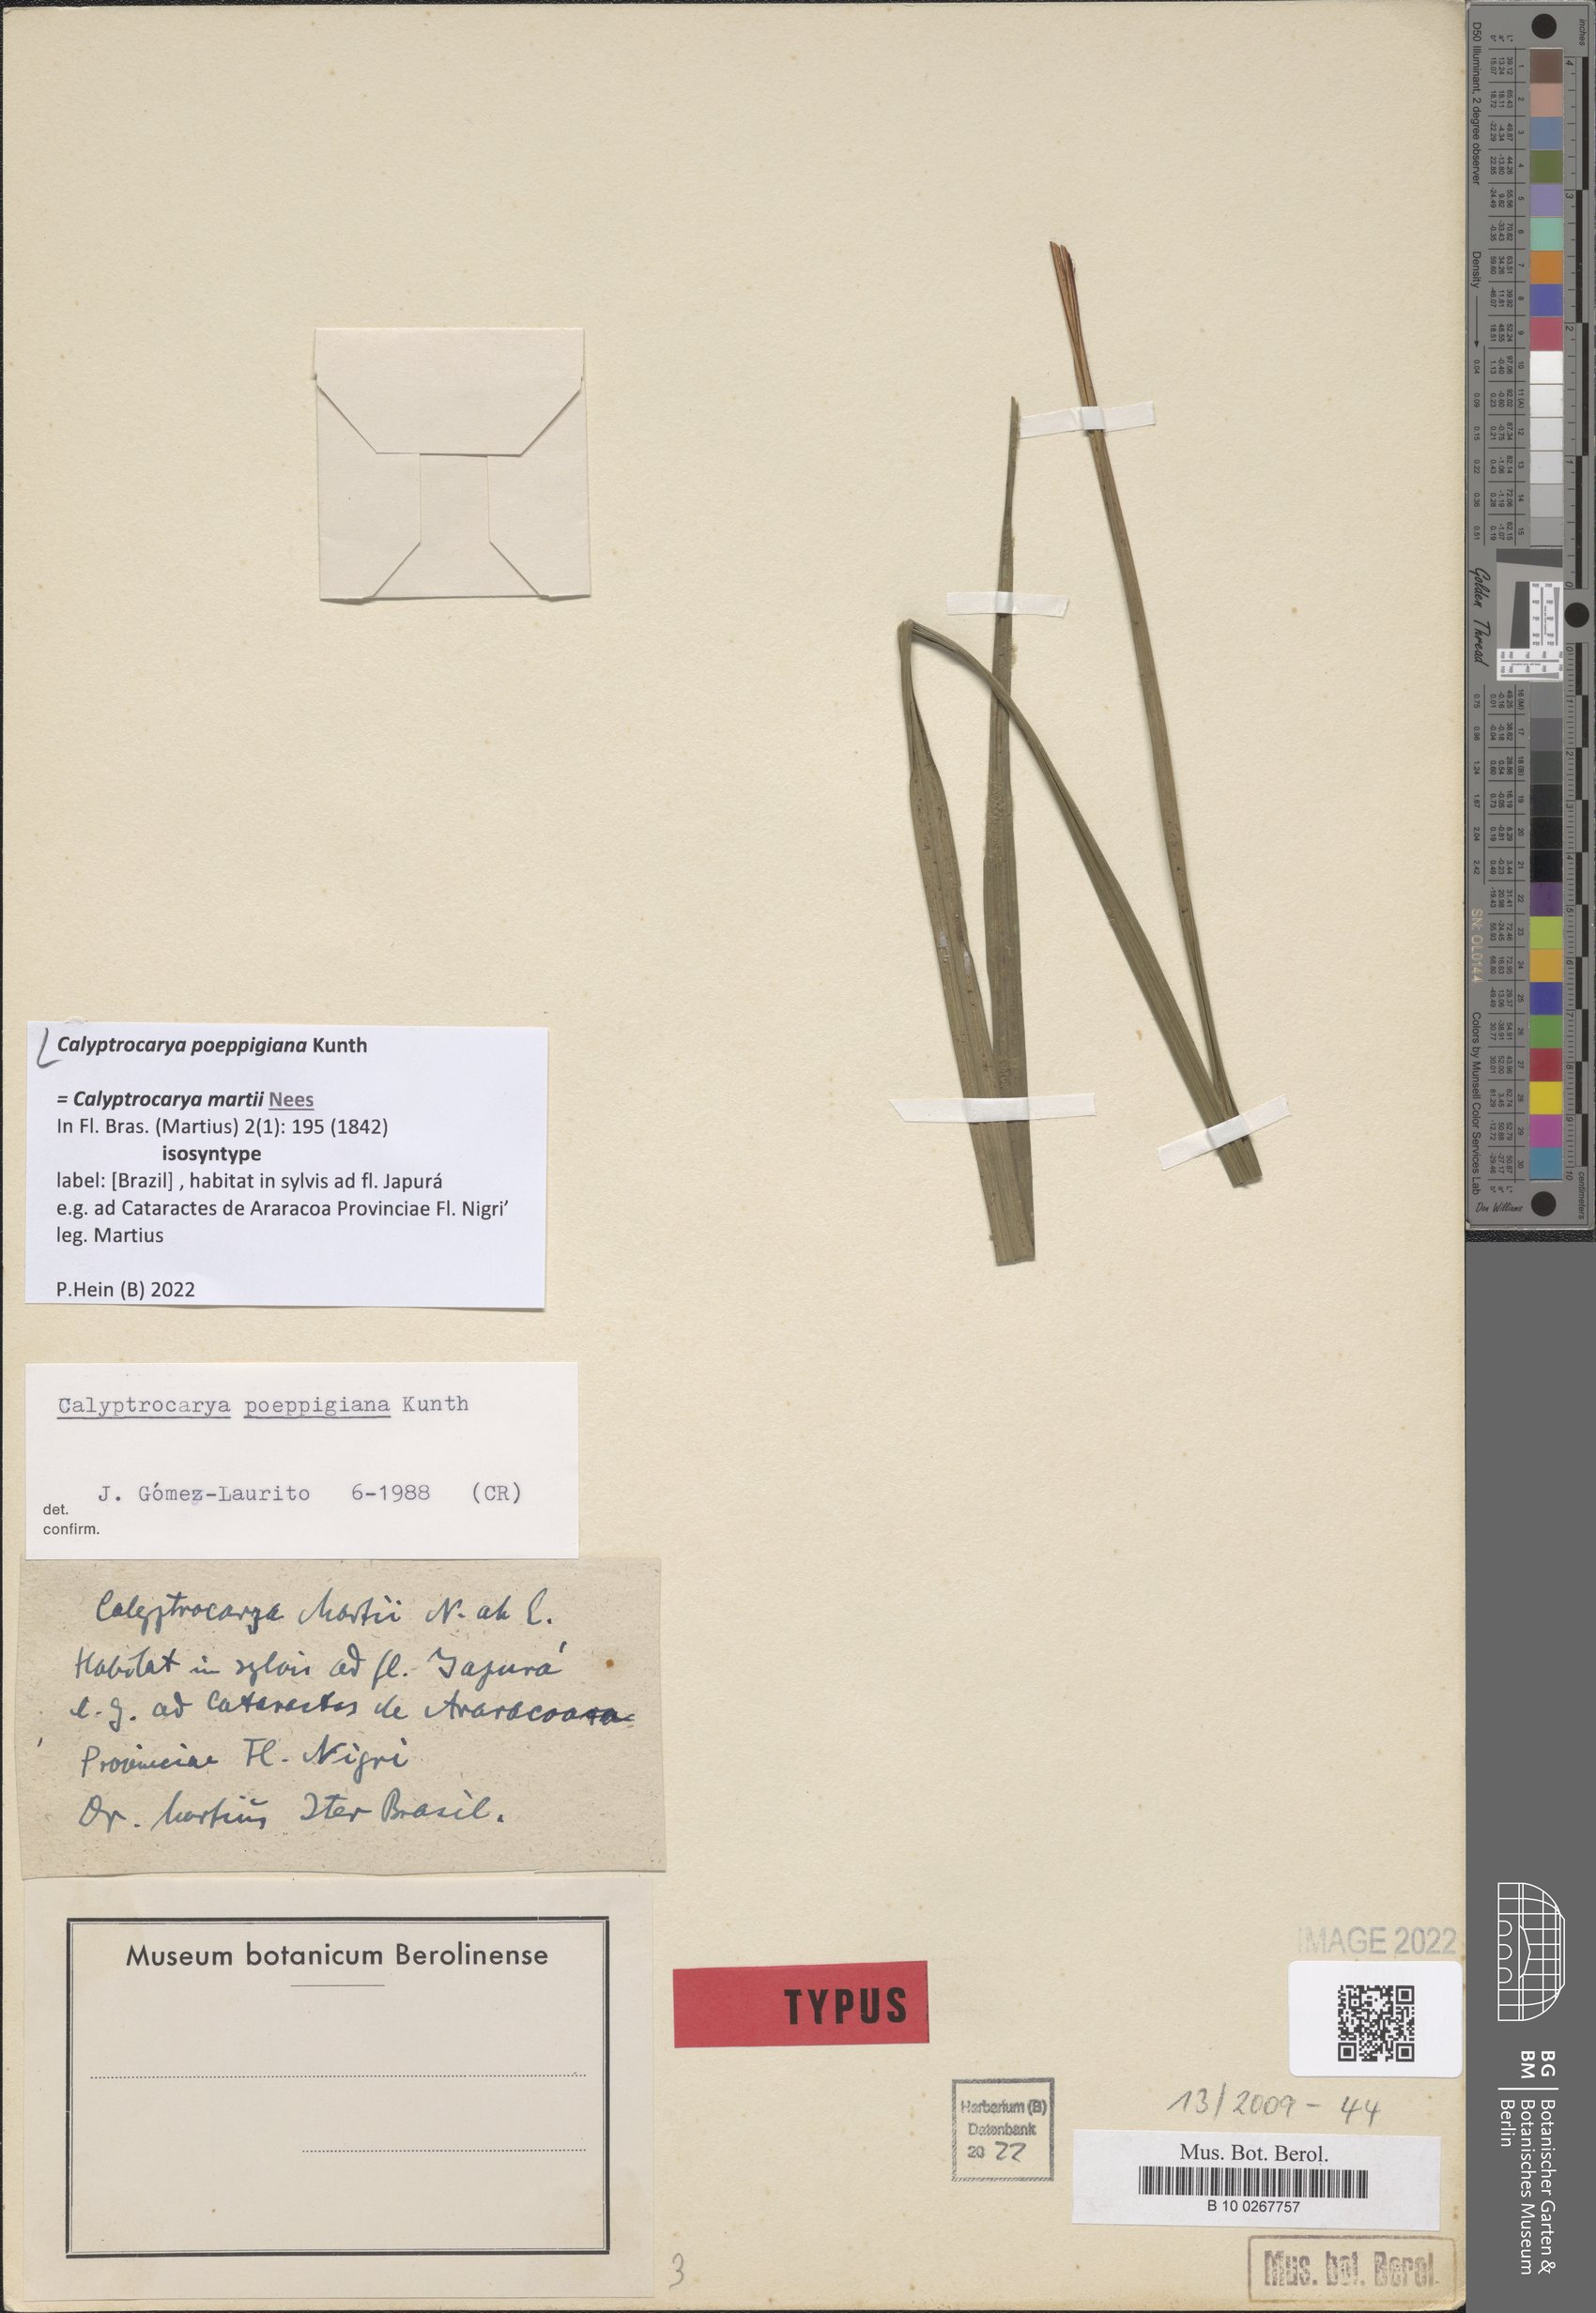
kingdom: Plantae
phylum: Tracheophyta
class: Liliopsida
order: Poales
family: Cyperaceae
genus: Calyptrocarya
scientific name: Calyptrocarya poeppigiana
